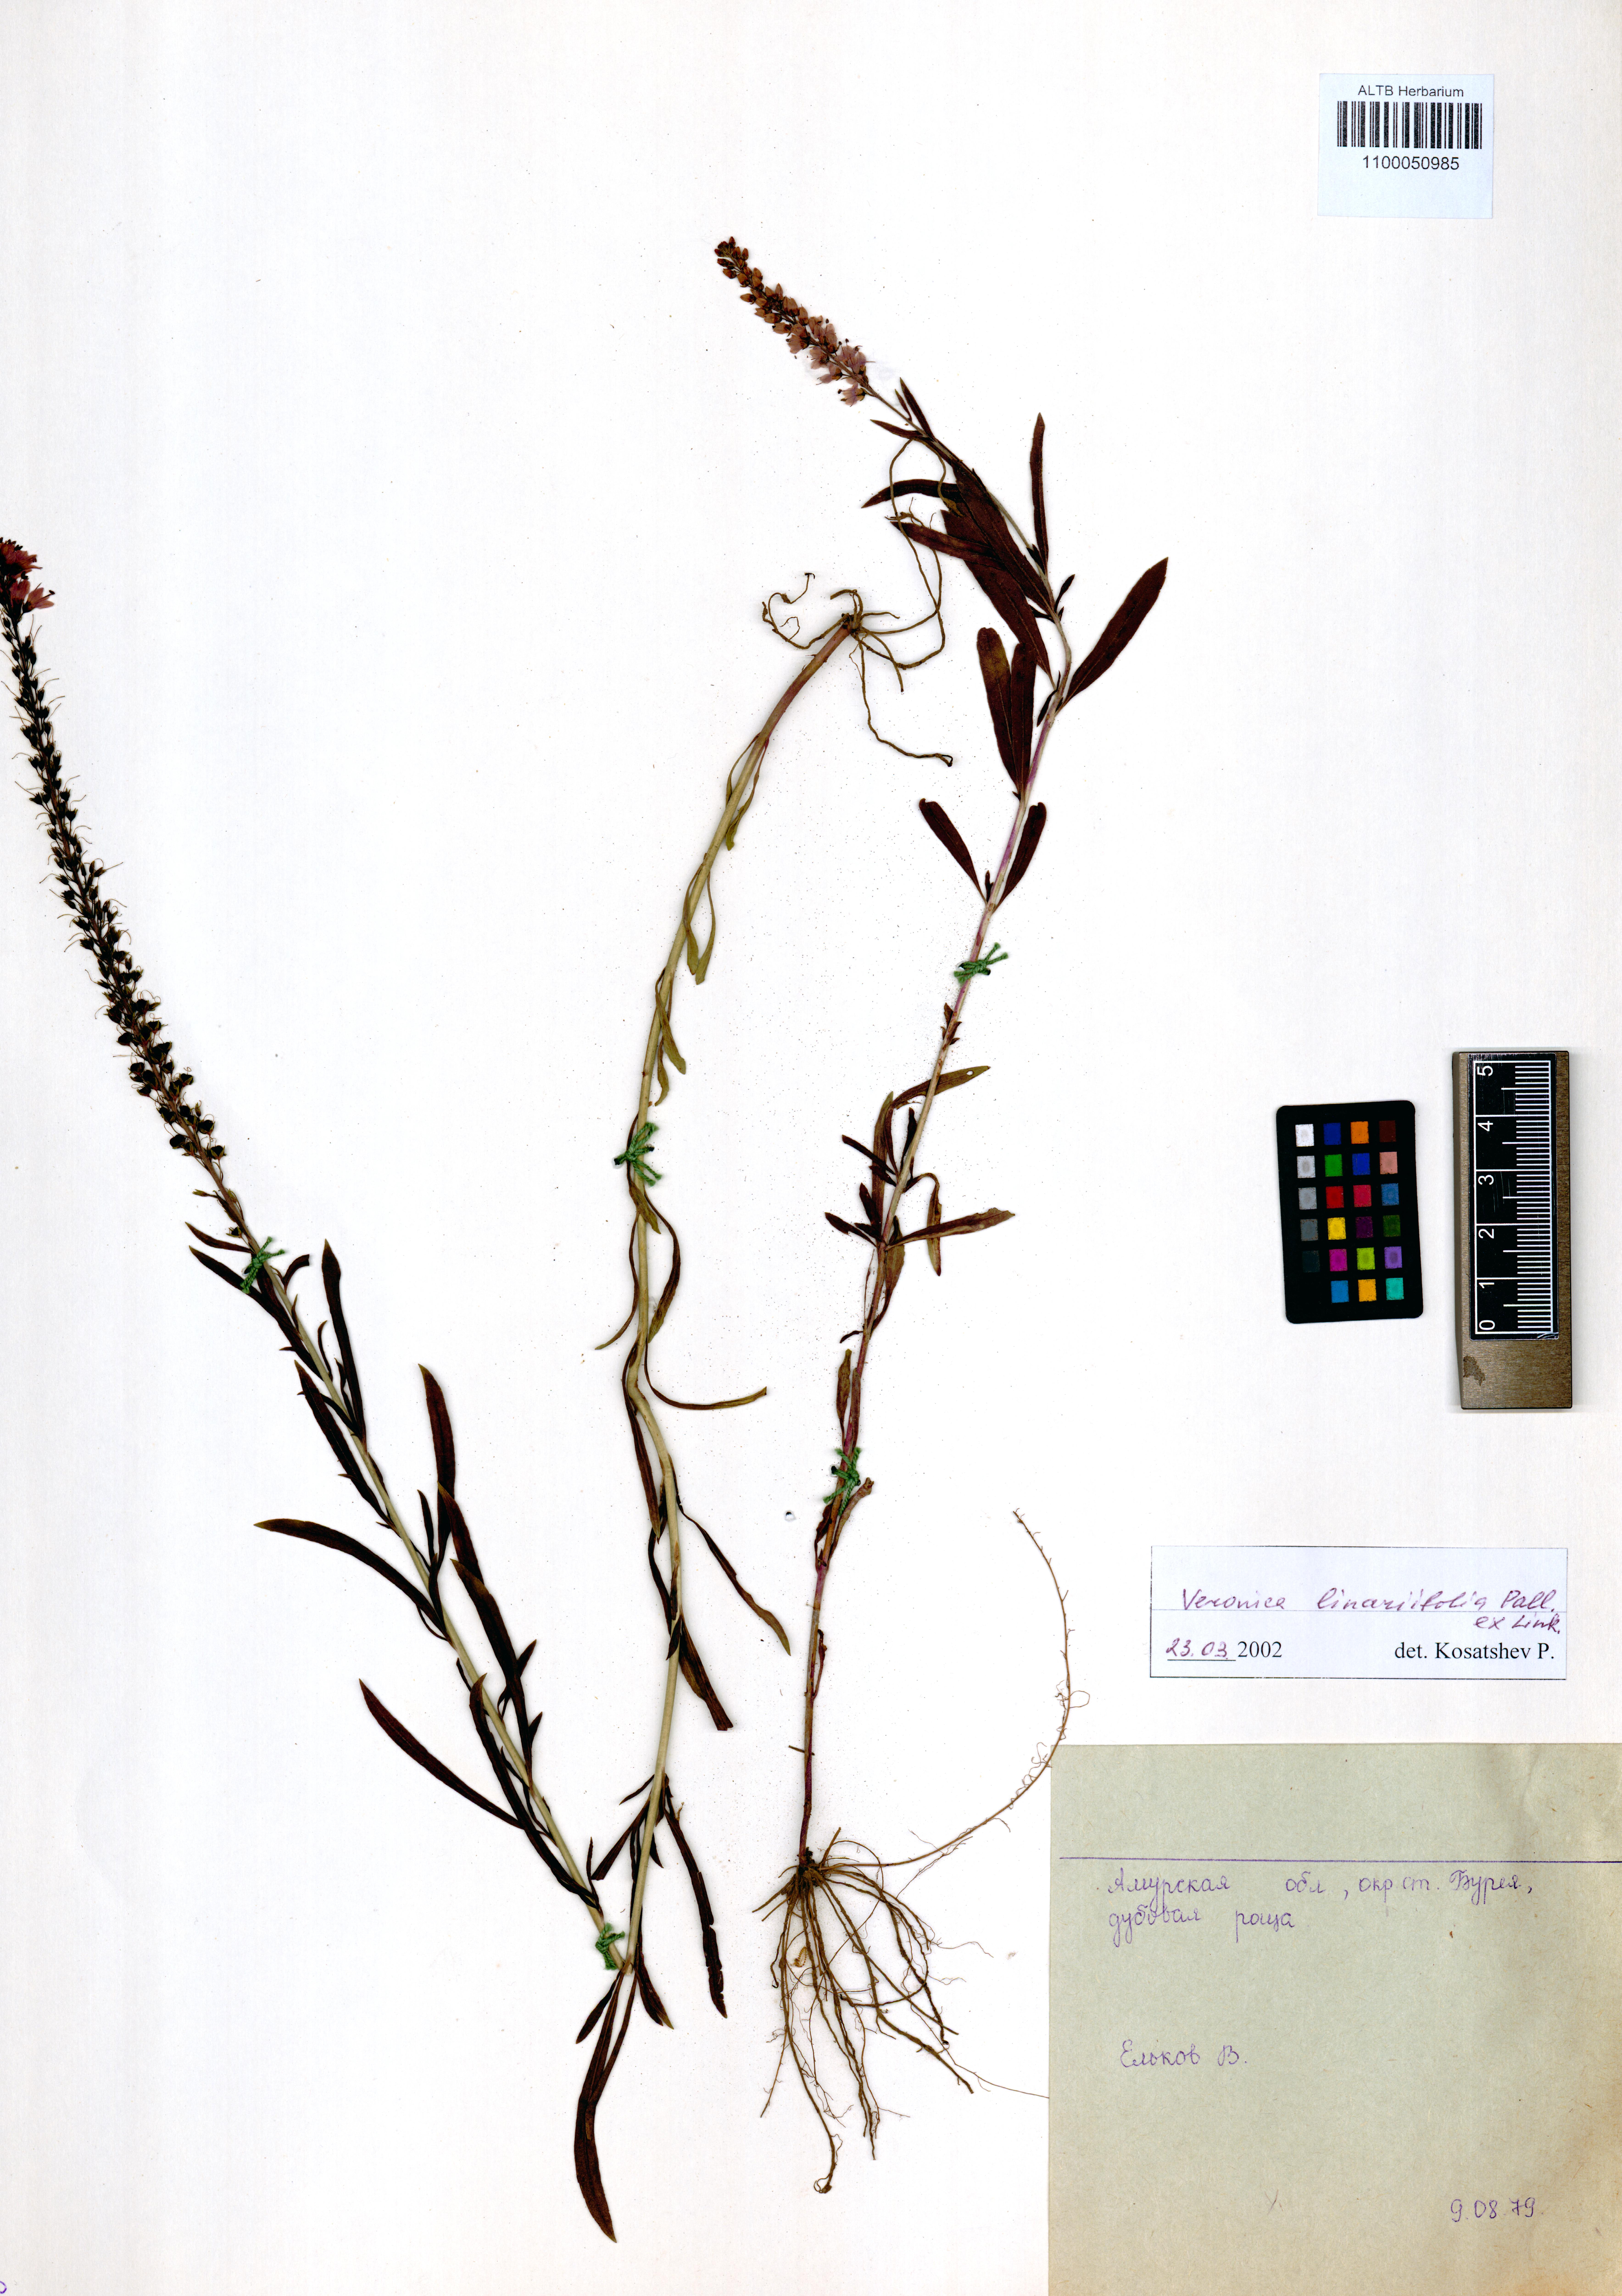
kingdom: Plantae
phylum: Tracheophyta
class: Magnoliopsida
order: Lamiales
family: Plantaginaceae
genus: Veronica
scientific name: Veronica linariifolia
